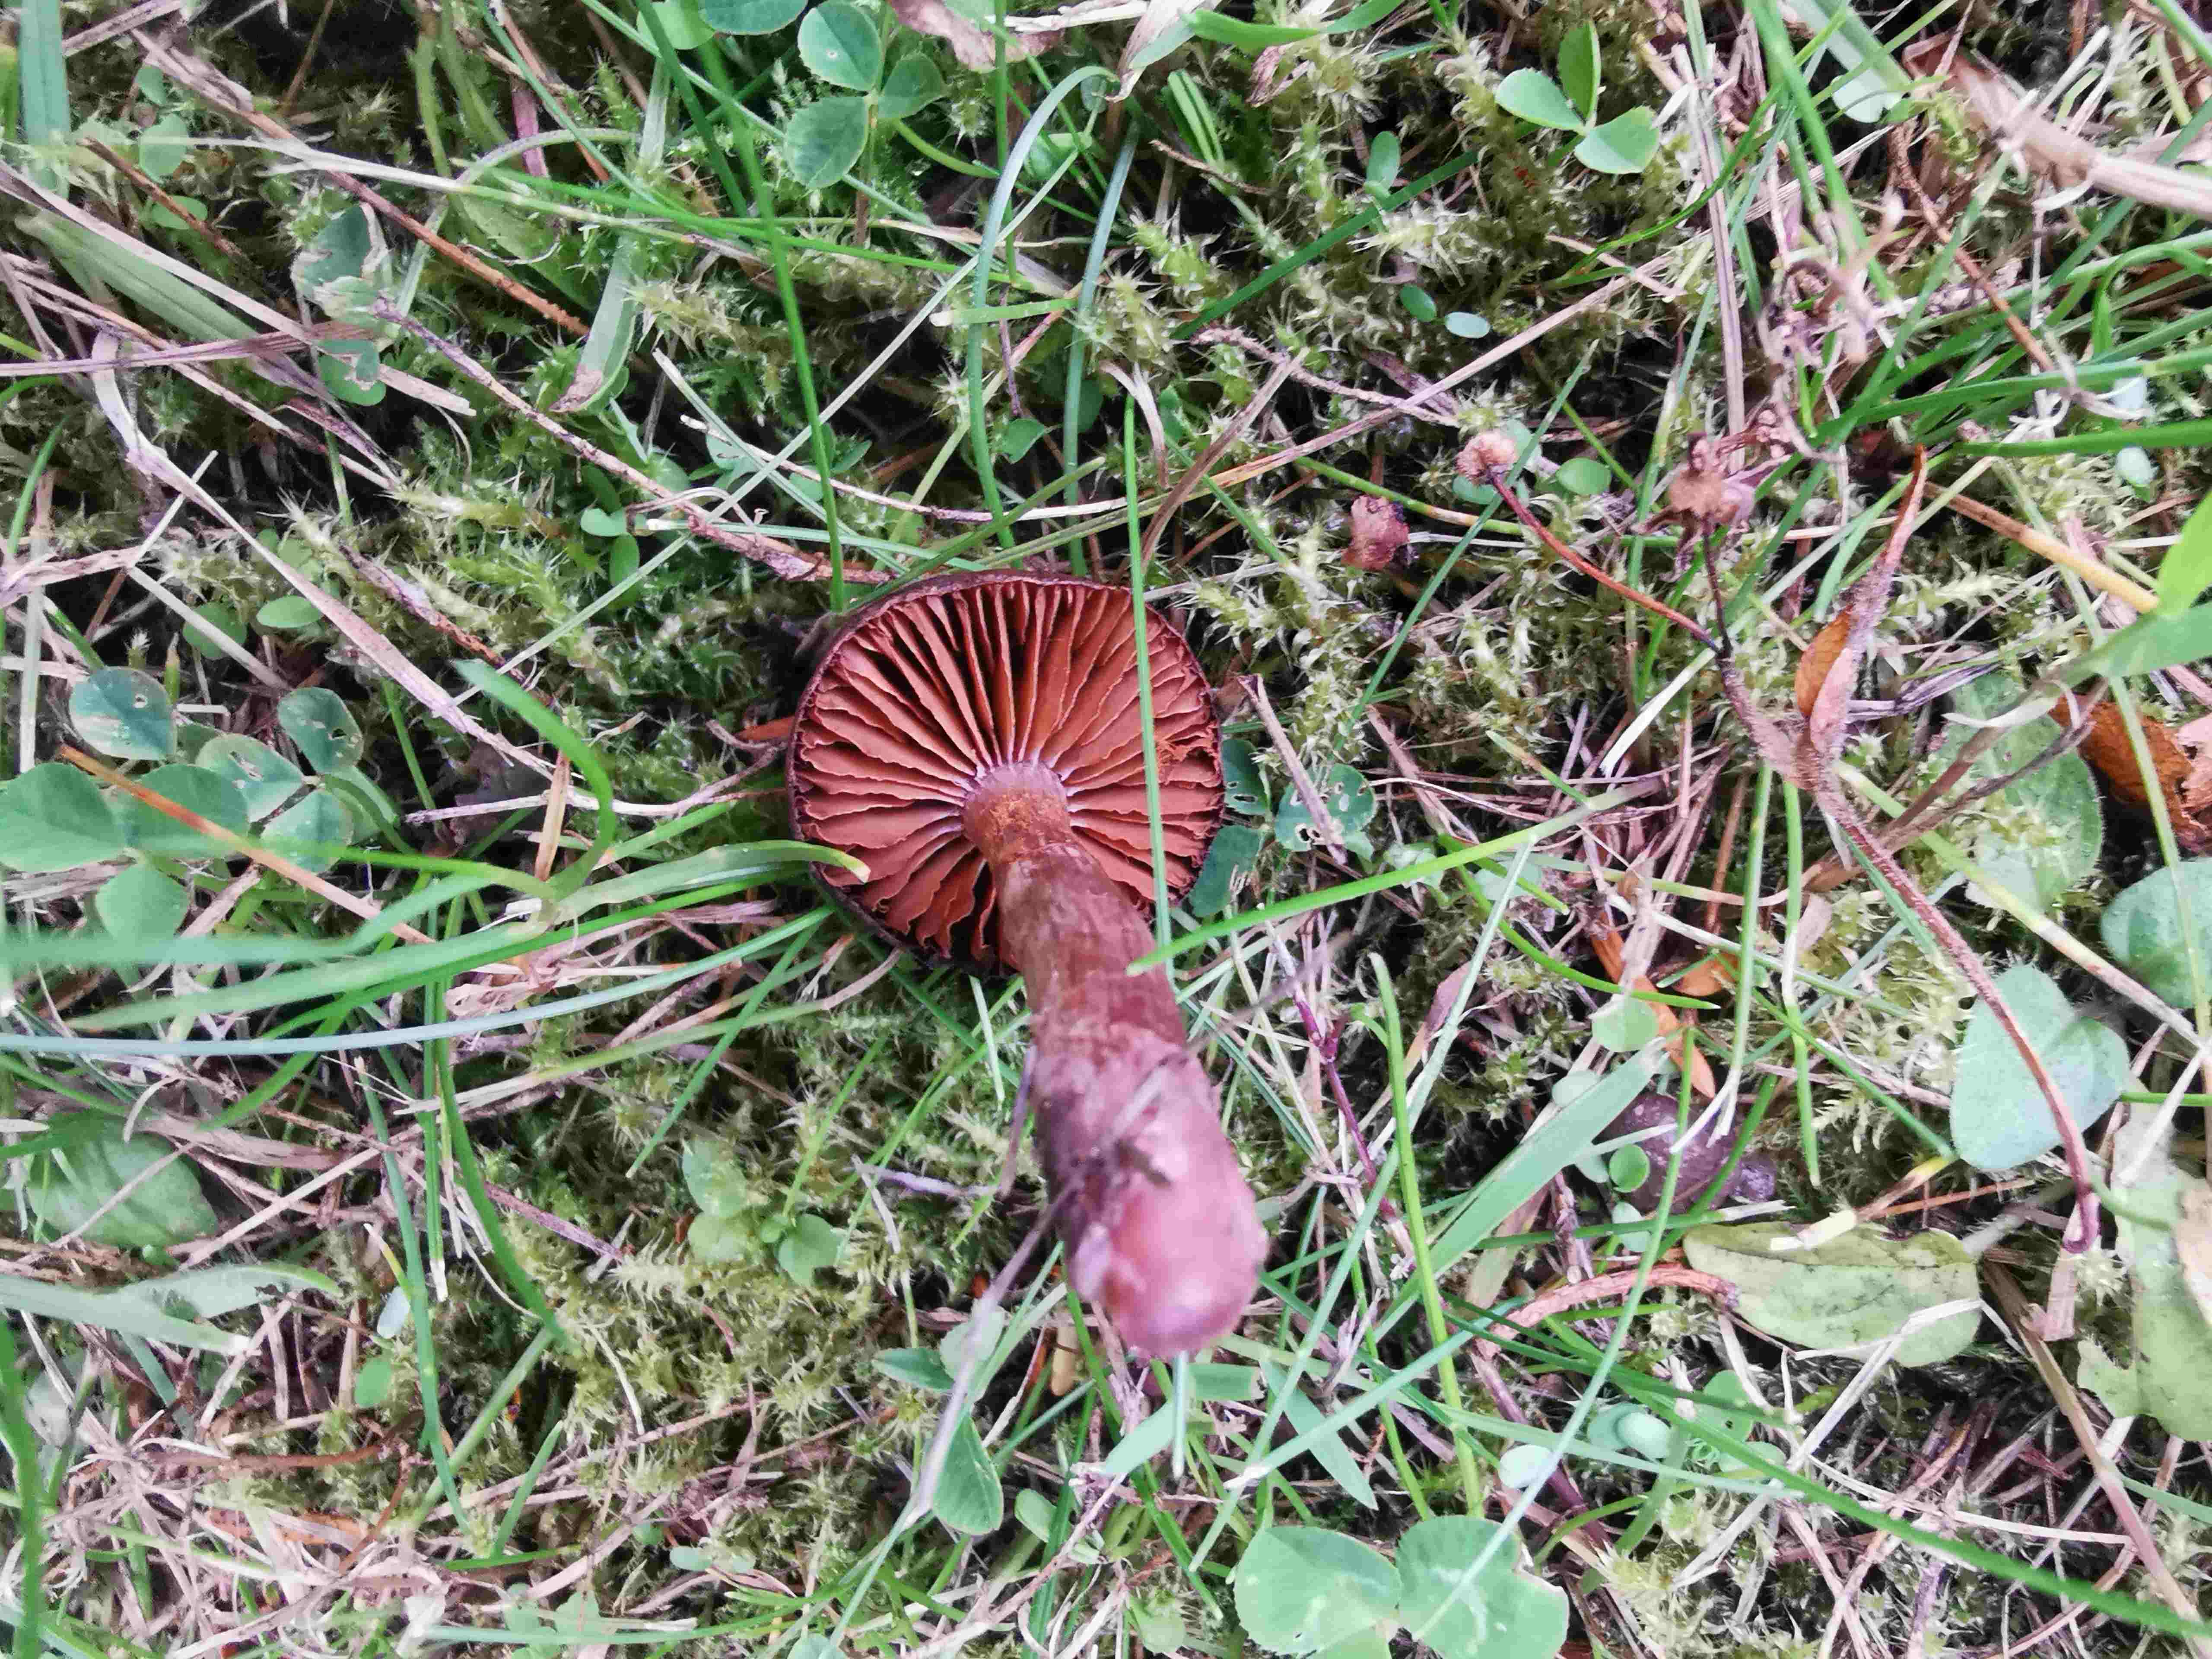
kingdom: Fungi
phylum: Basidiomycota
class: Agaricomycetes
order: Agaricales
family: Cortinariaceae
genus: Cortinarius
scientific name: Cortinarius
